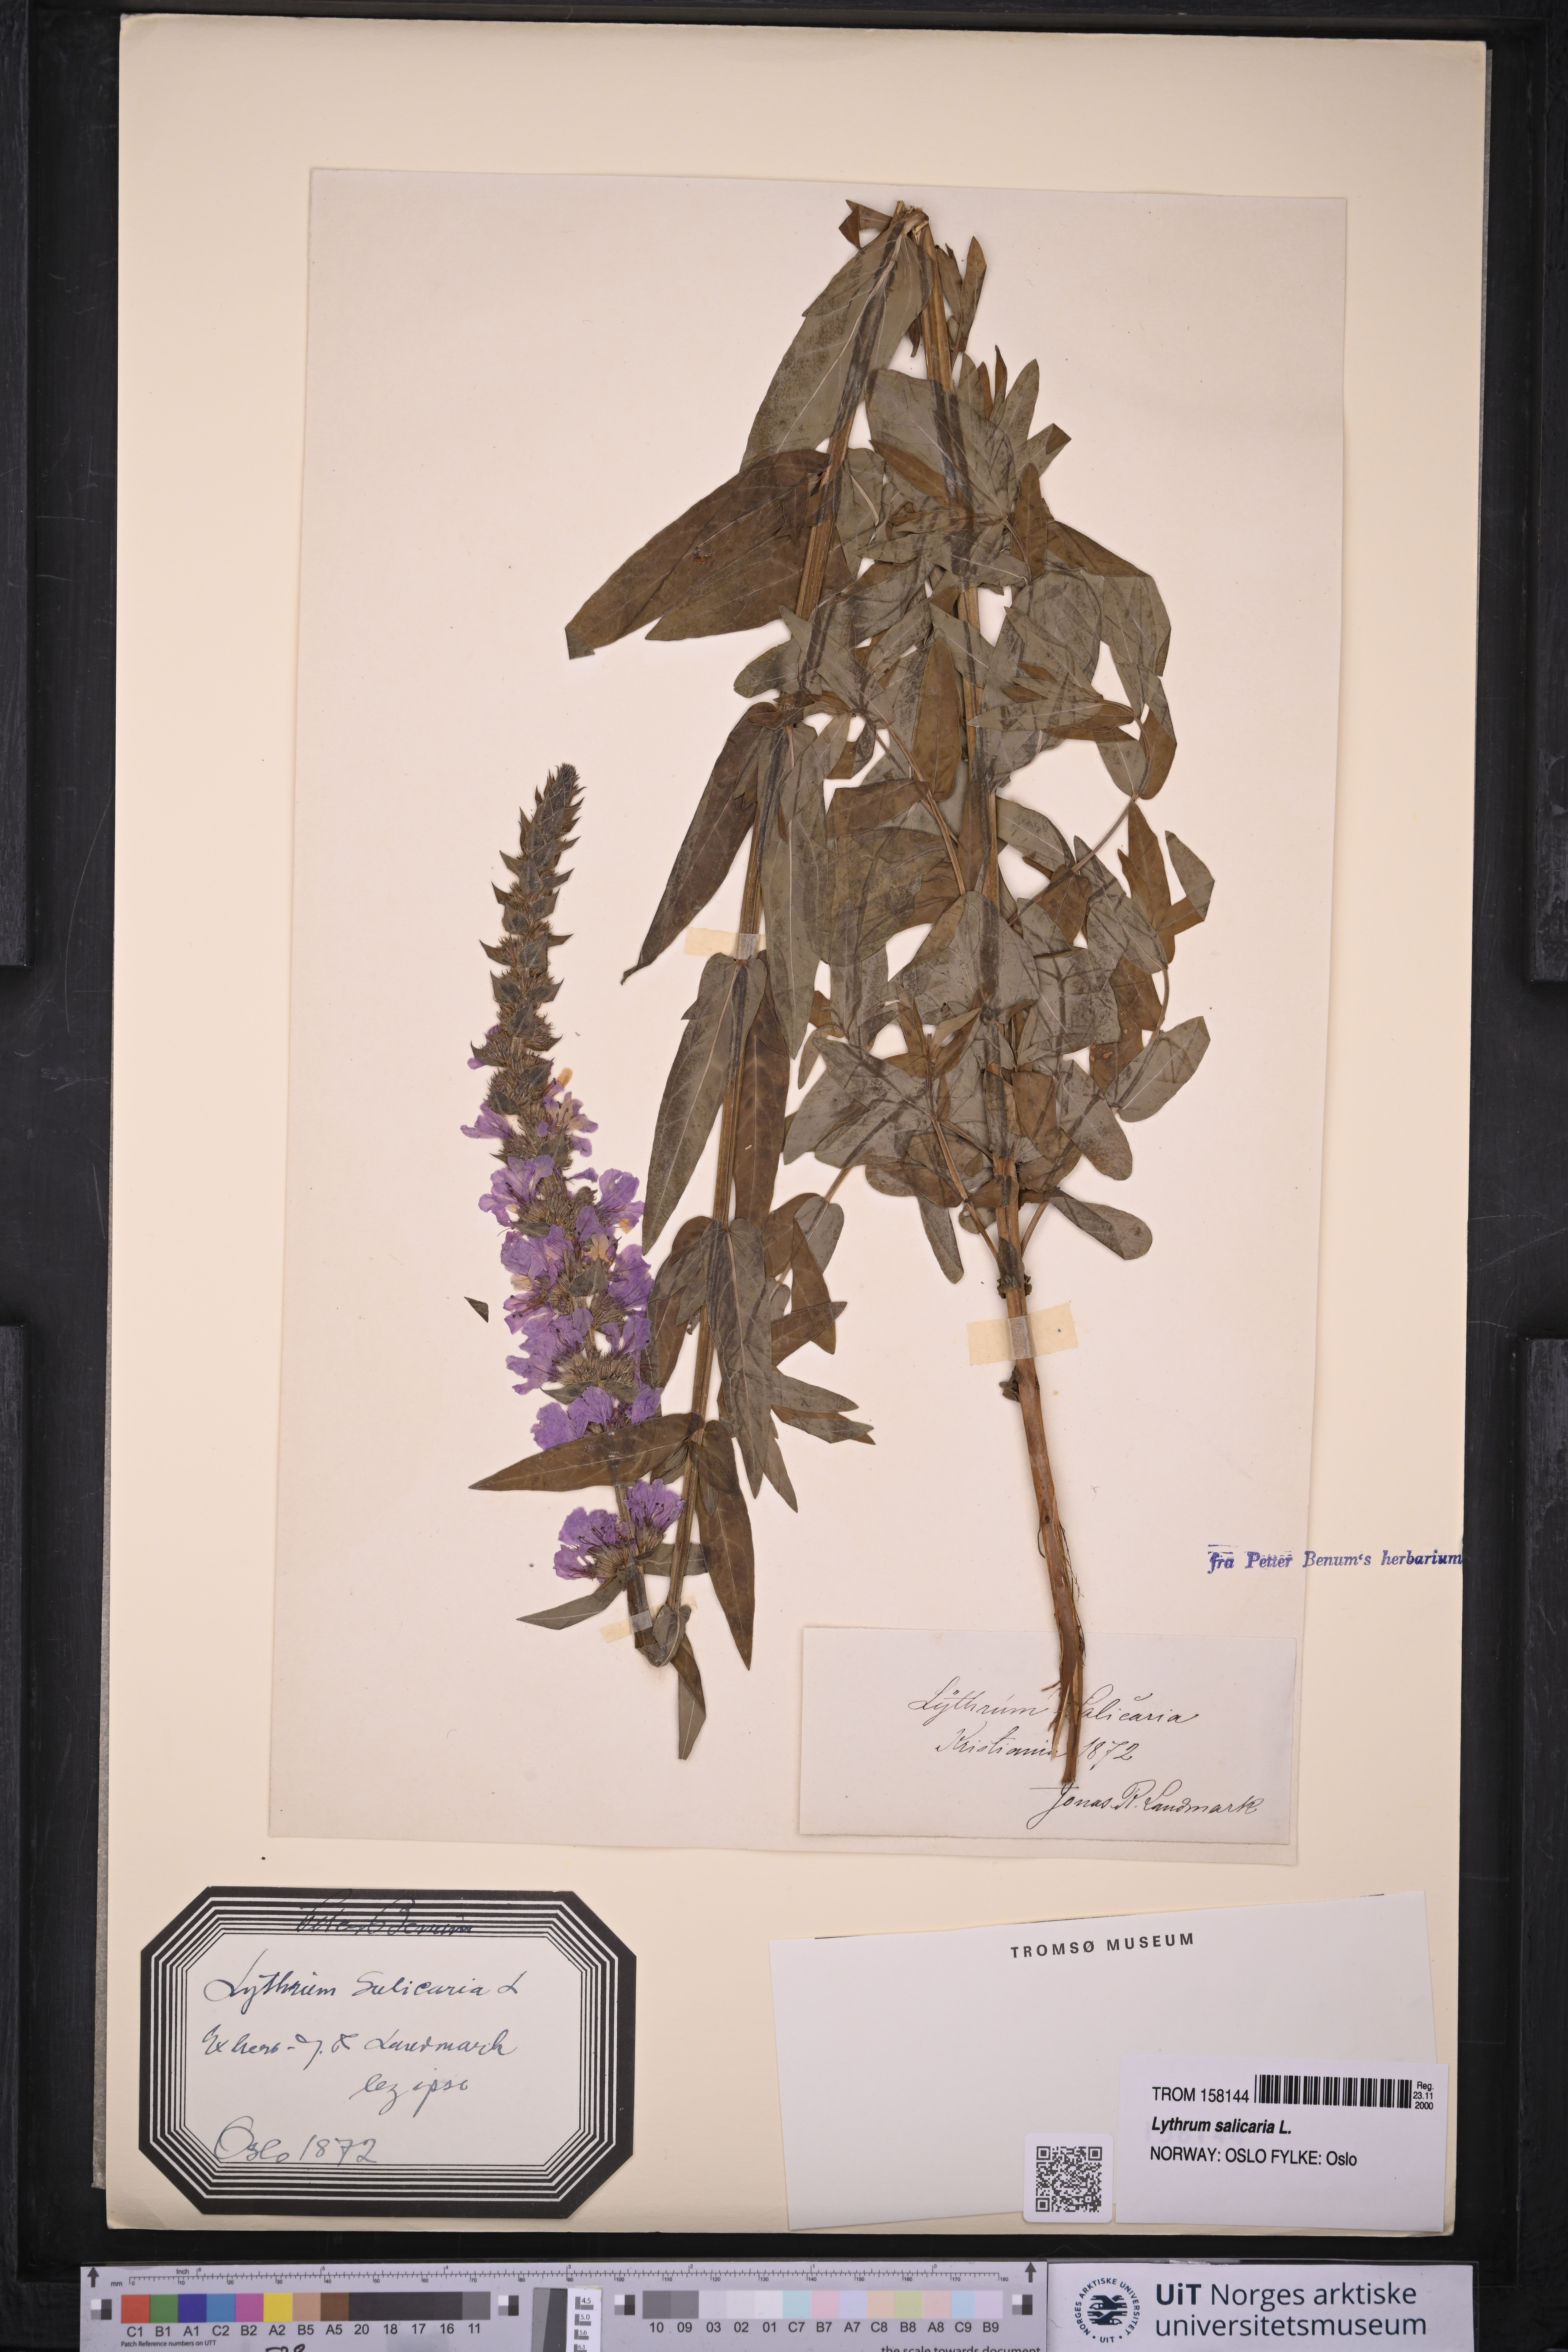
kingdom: Plantae
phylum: Tracheophyta
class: Magnoliopsida
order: Myrtales
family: Lythraceae
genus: Lythrum
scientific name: Lythrum salicaria
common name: Purple loosestrife
